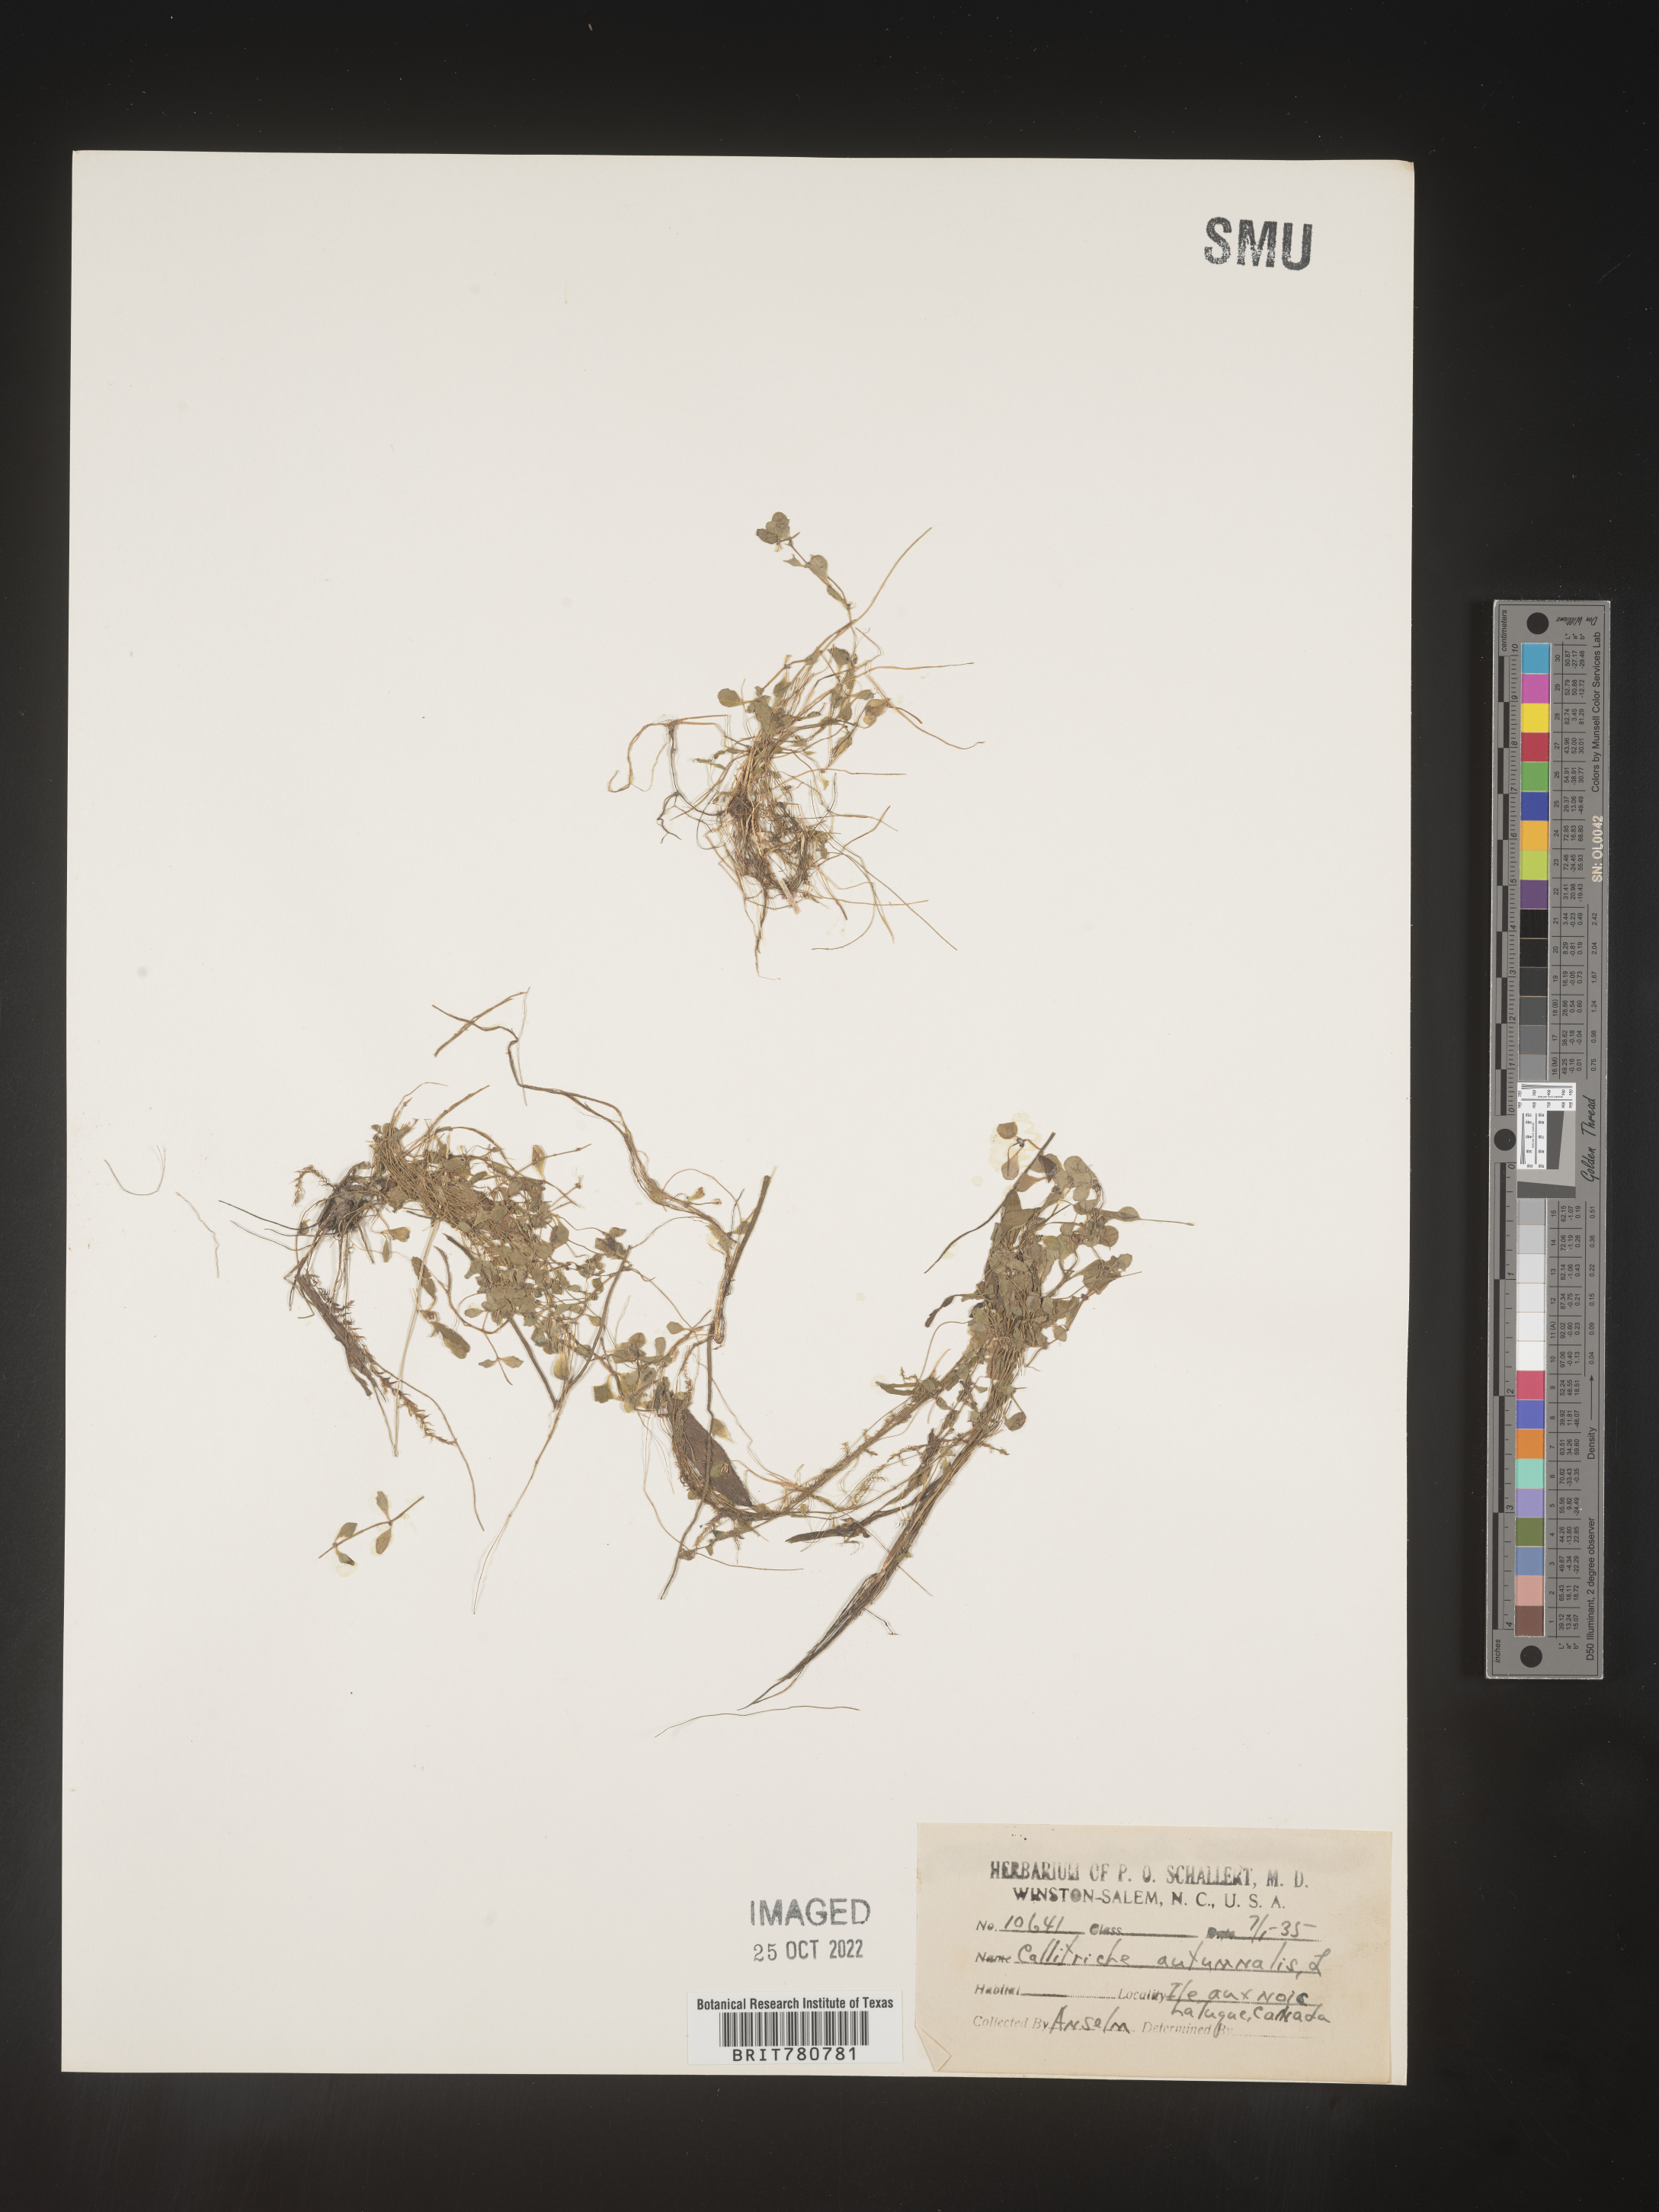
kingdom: Plantae
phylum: Tracheophyta
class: Magnoliopsida
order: Lamiales
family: Plantaginaceae
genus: Callitriche
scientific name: Callitriche
